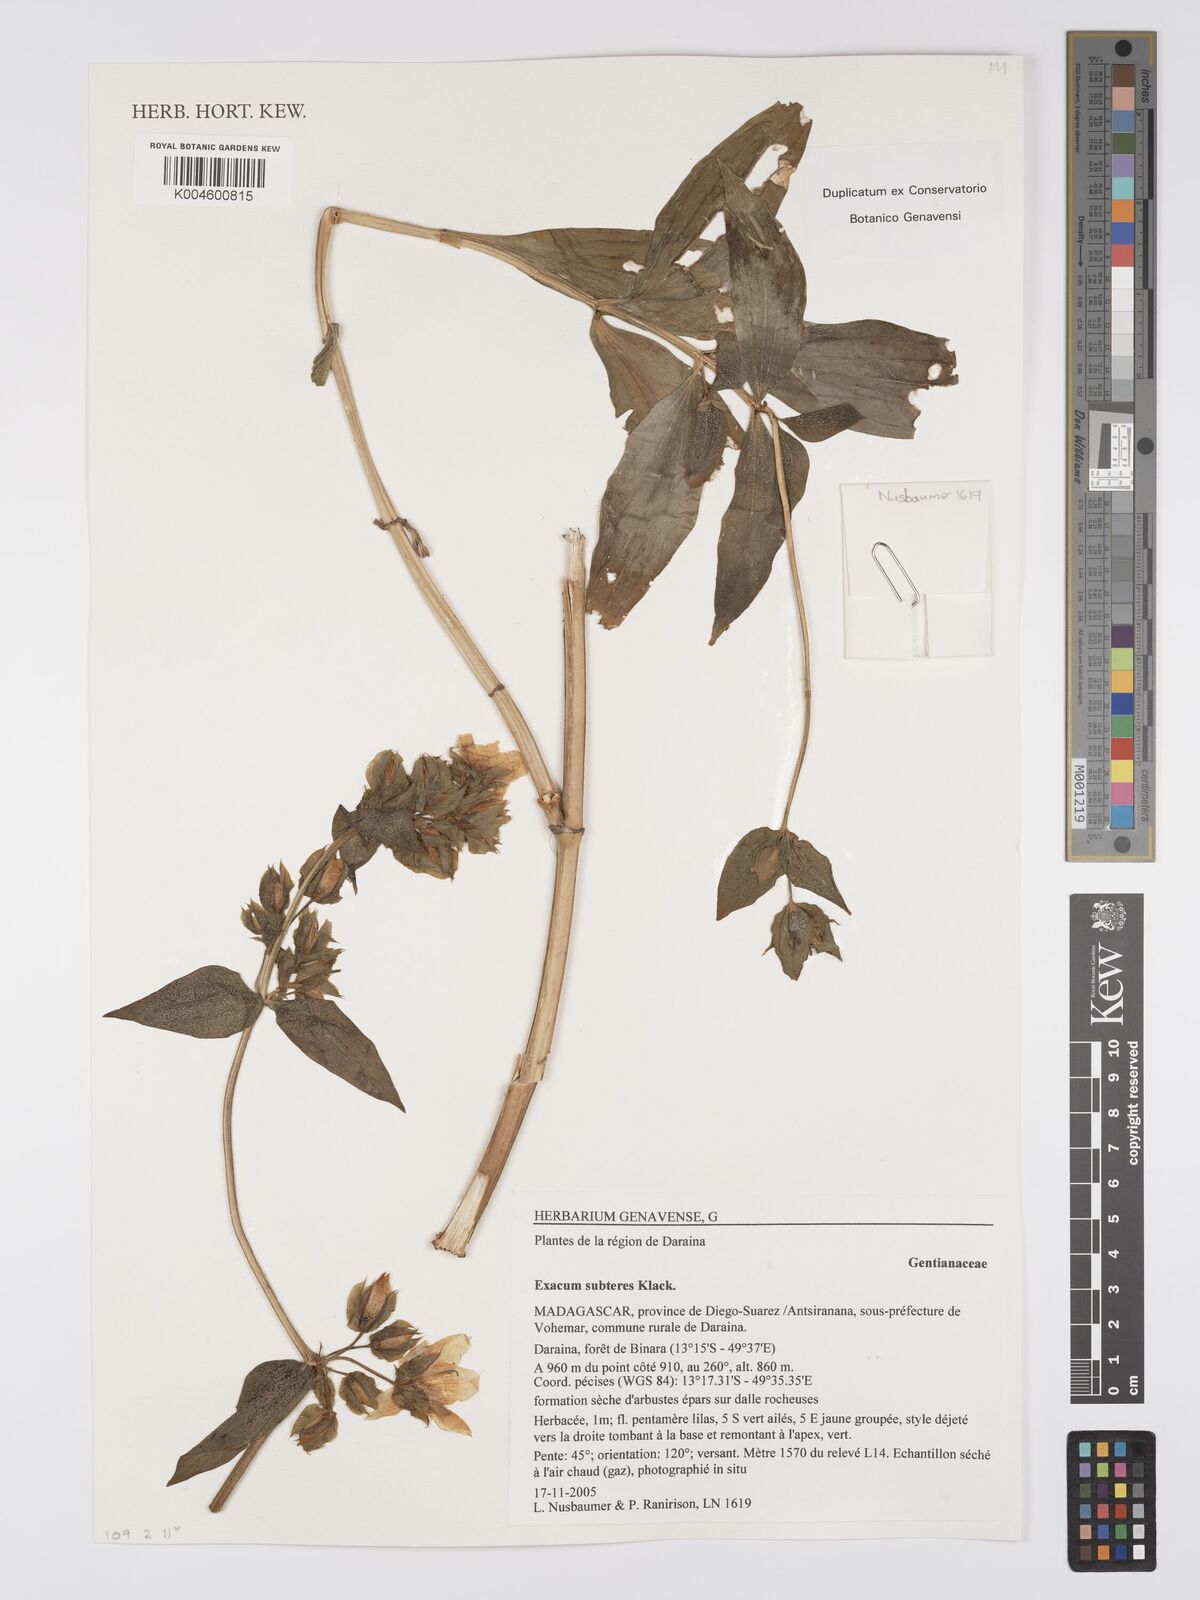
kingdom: Plantae
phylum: Tracheophyta
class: Magnoliopsida
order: Gentianales
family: Gentianaceae
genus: Exacum
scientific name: Exacum subteres
